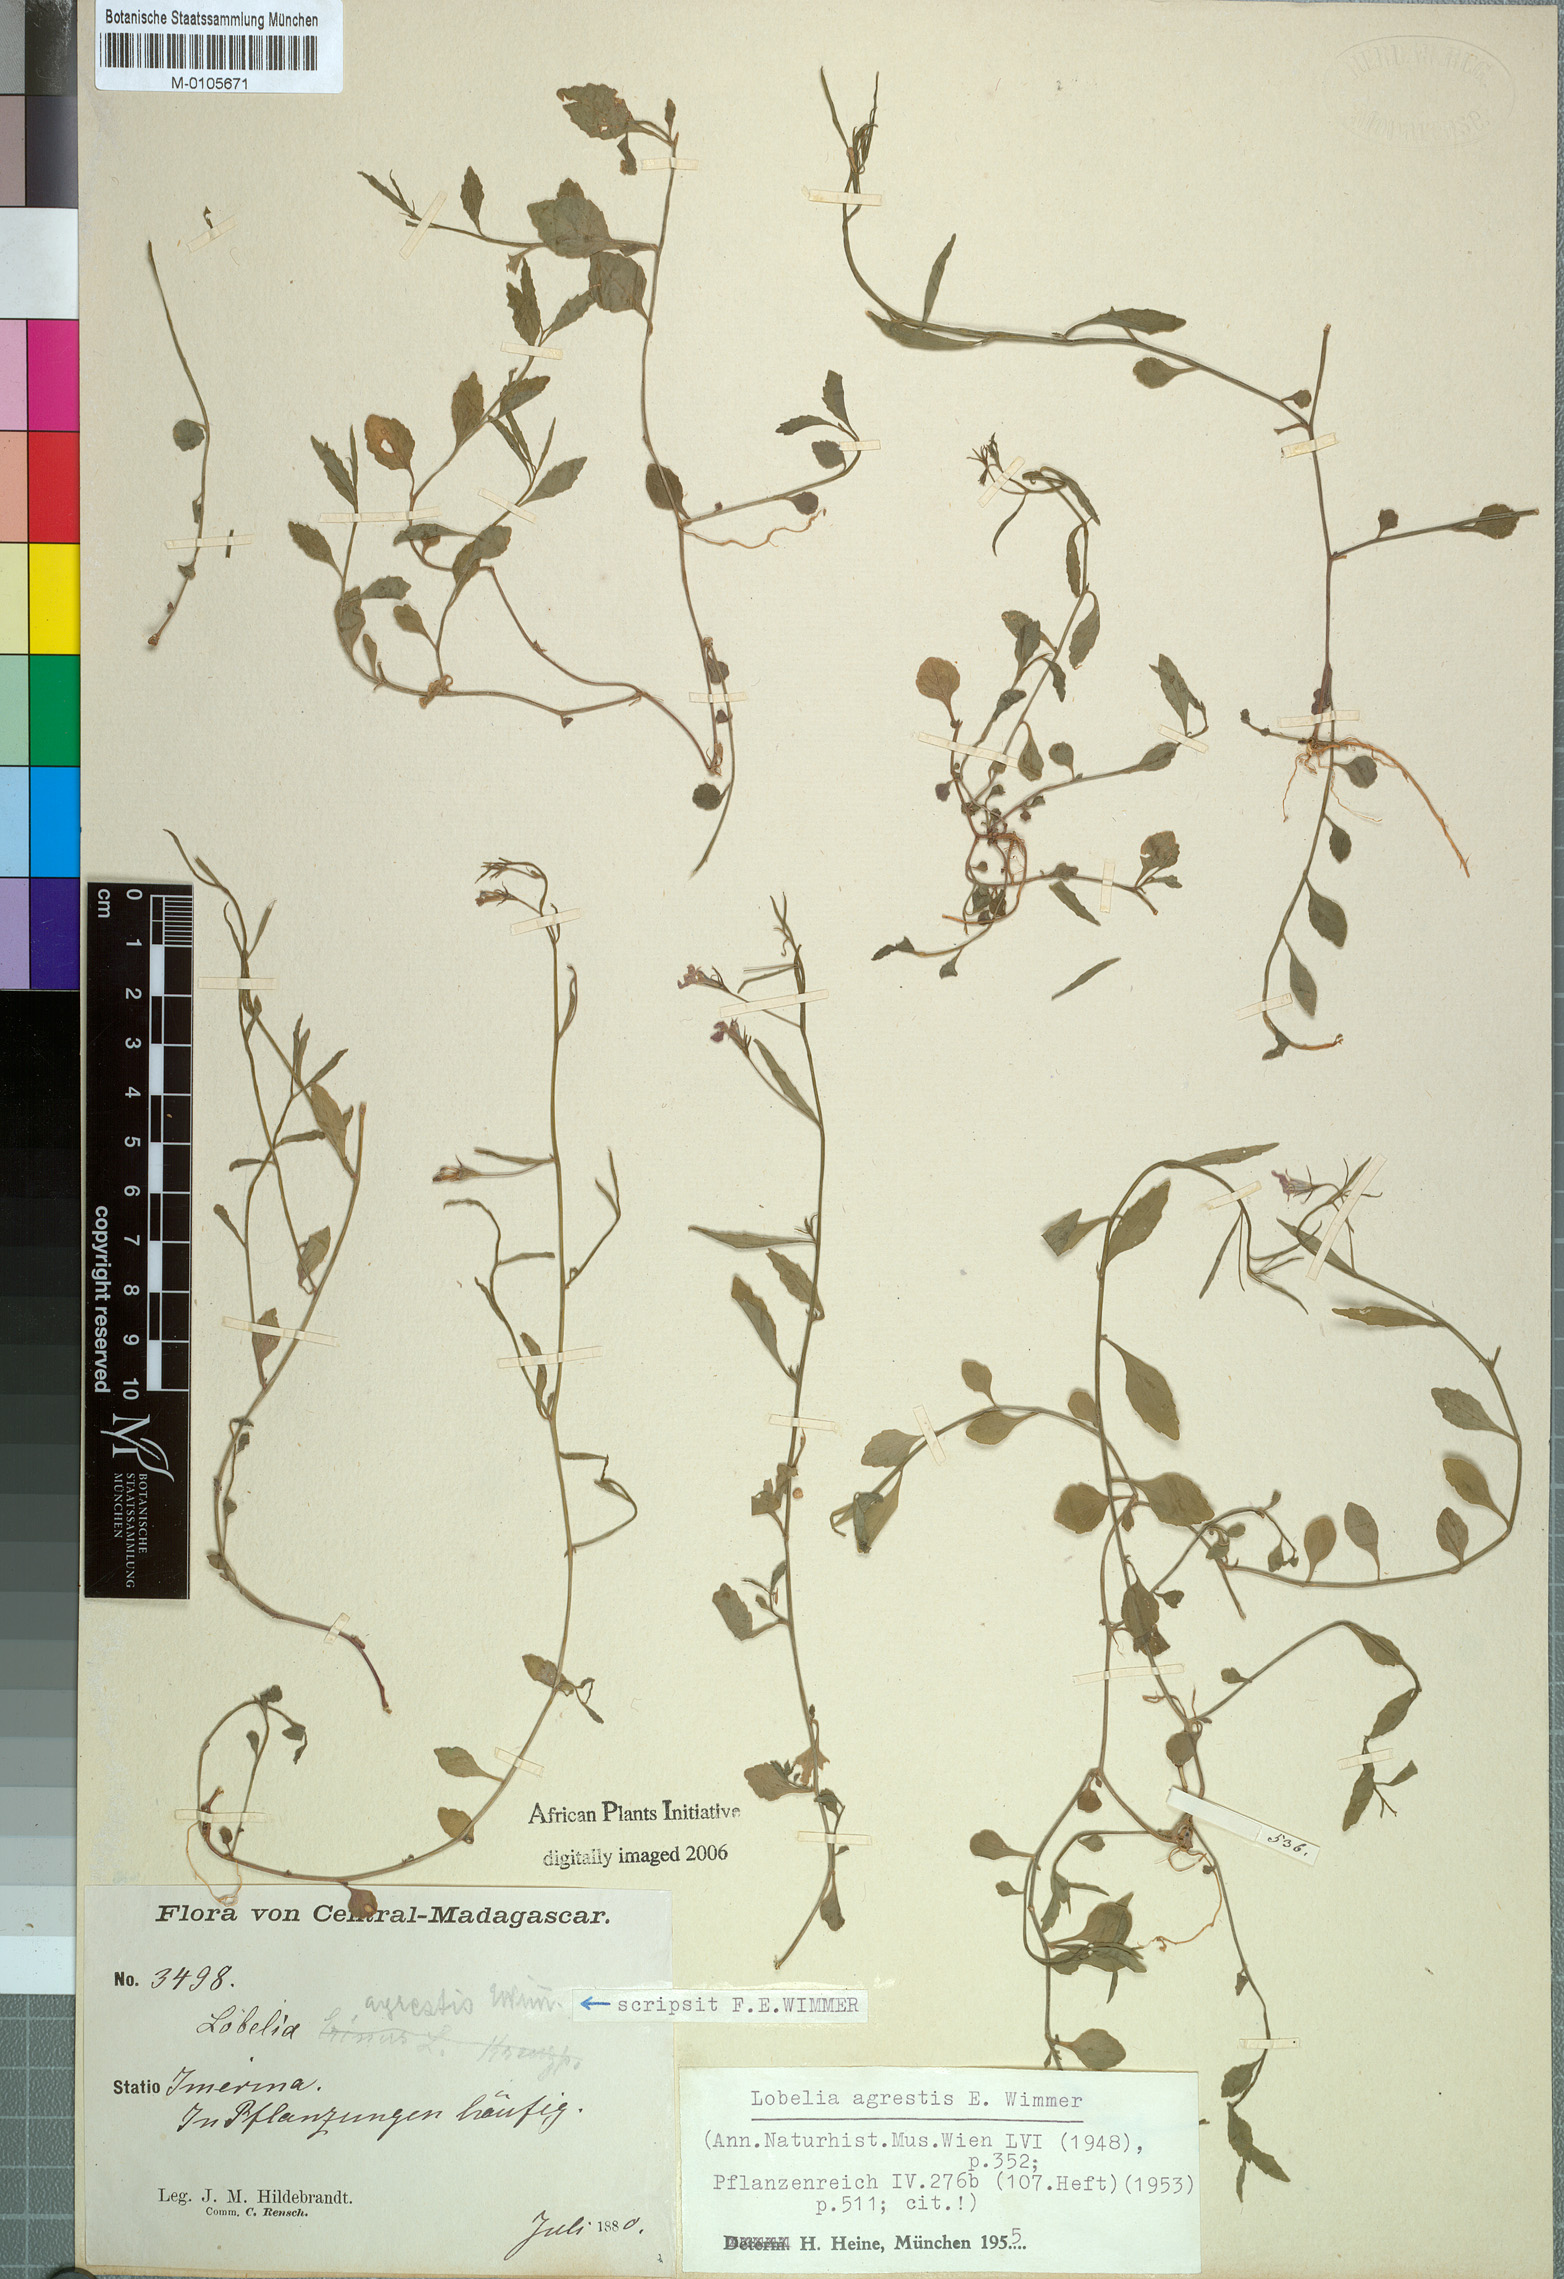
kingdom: Plantae
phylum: Tracheophyta
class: Magnoliopsida
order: Asterales
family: Campanulaceae
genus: Lobelia
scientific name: Lobelia agrestis
